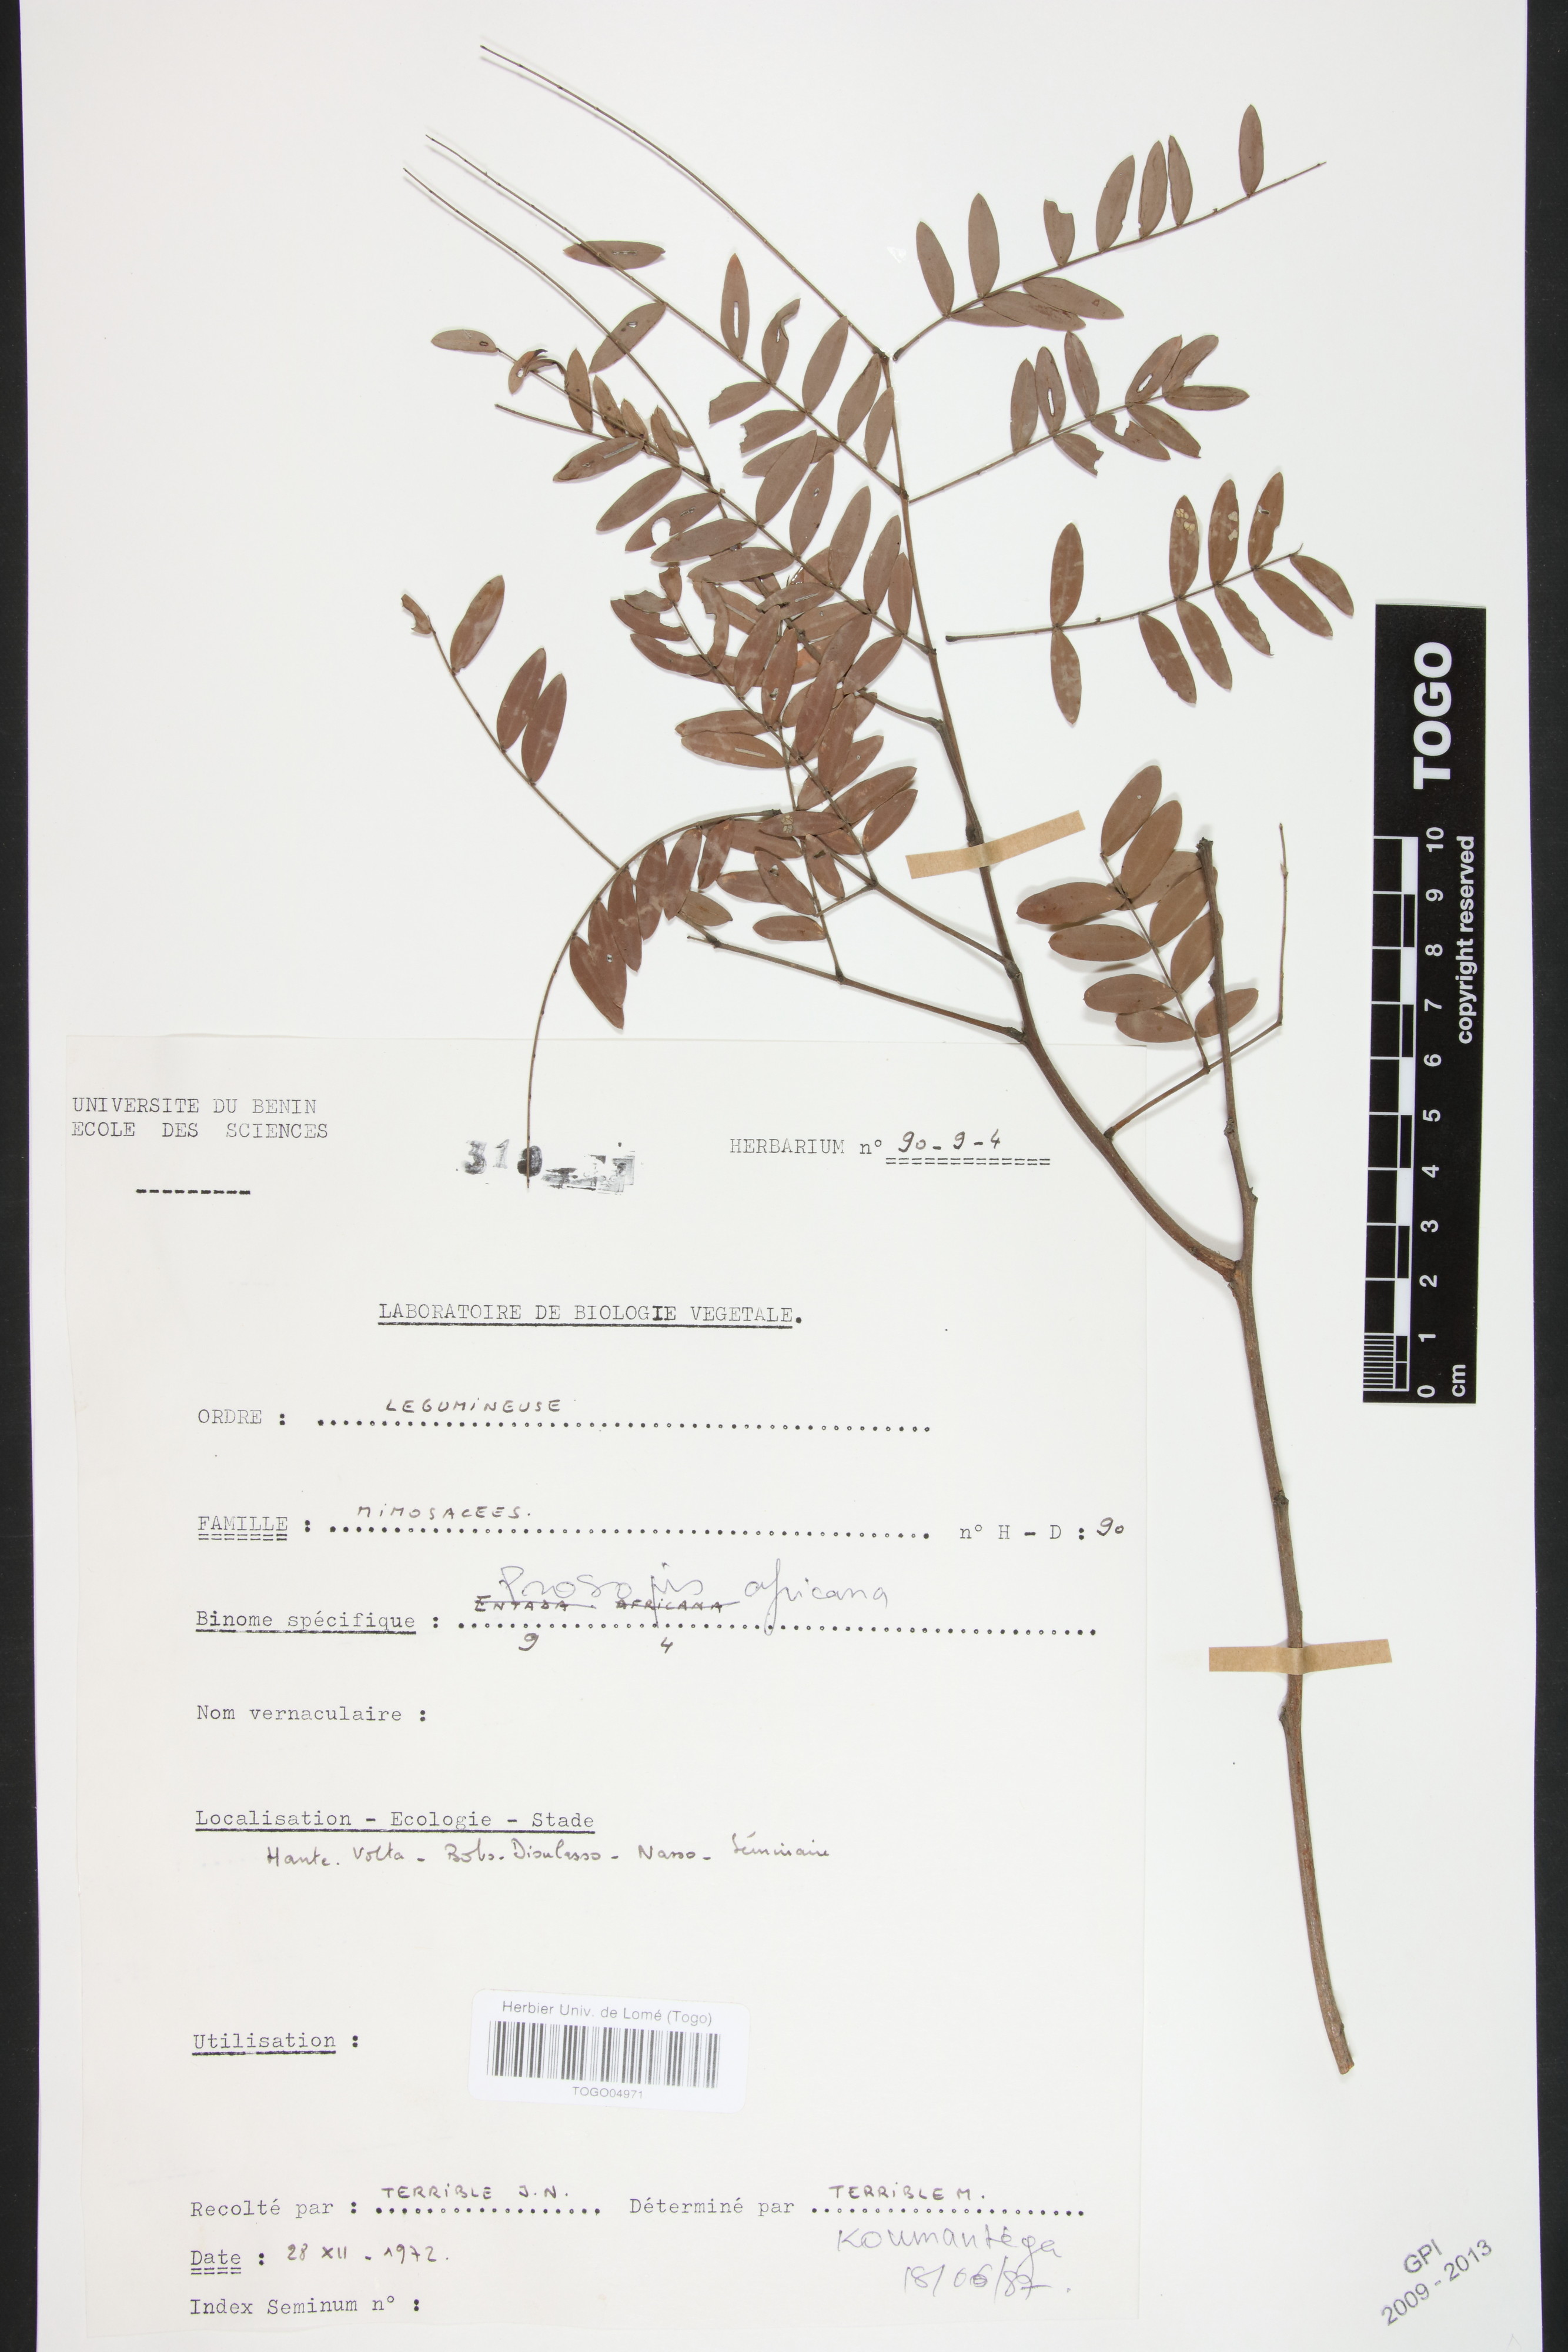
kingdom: Plantae
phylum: Tracheophyta
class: Magnoliopsida
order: Fabales
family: Fabaceae
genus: Prosopis
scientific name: Prosopis africana
